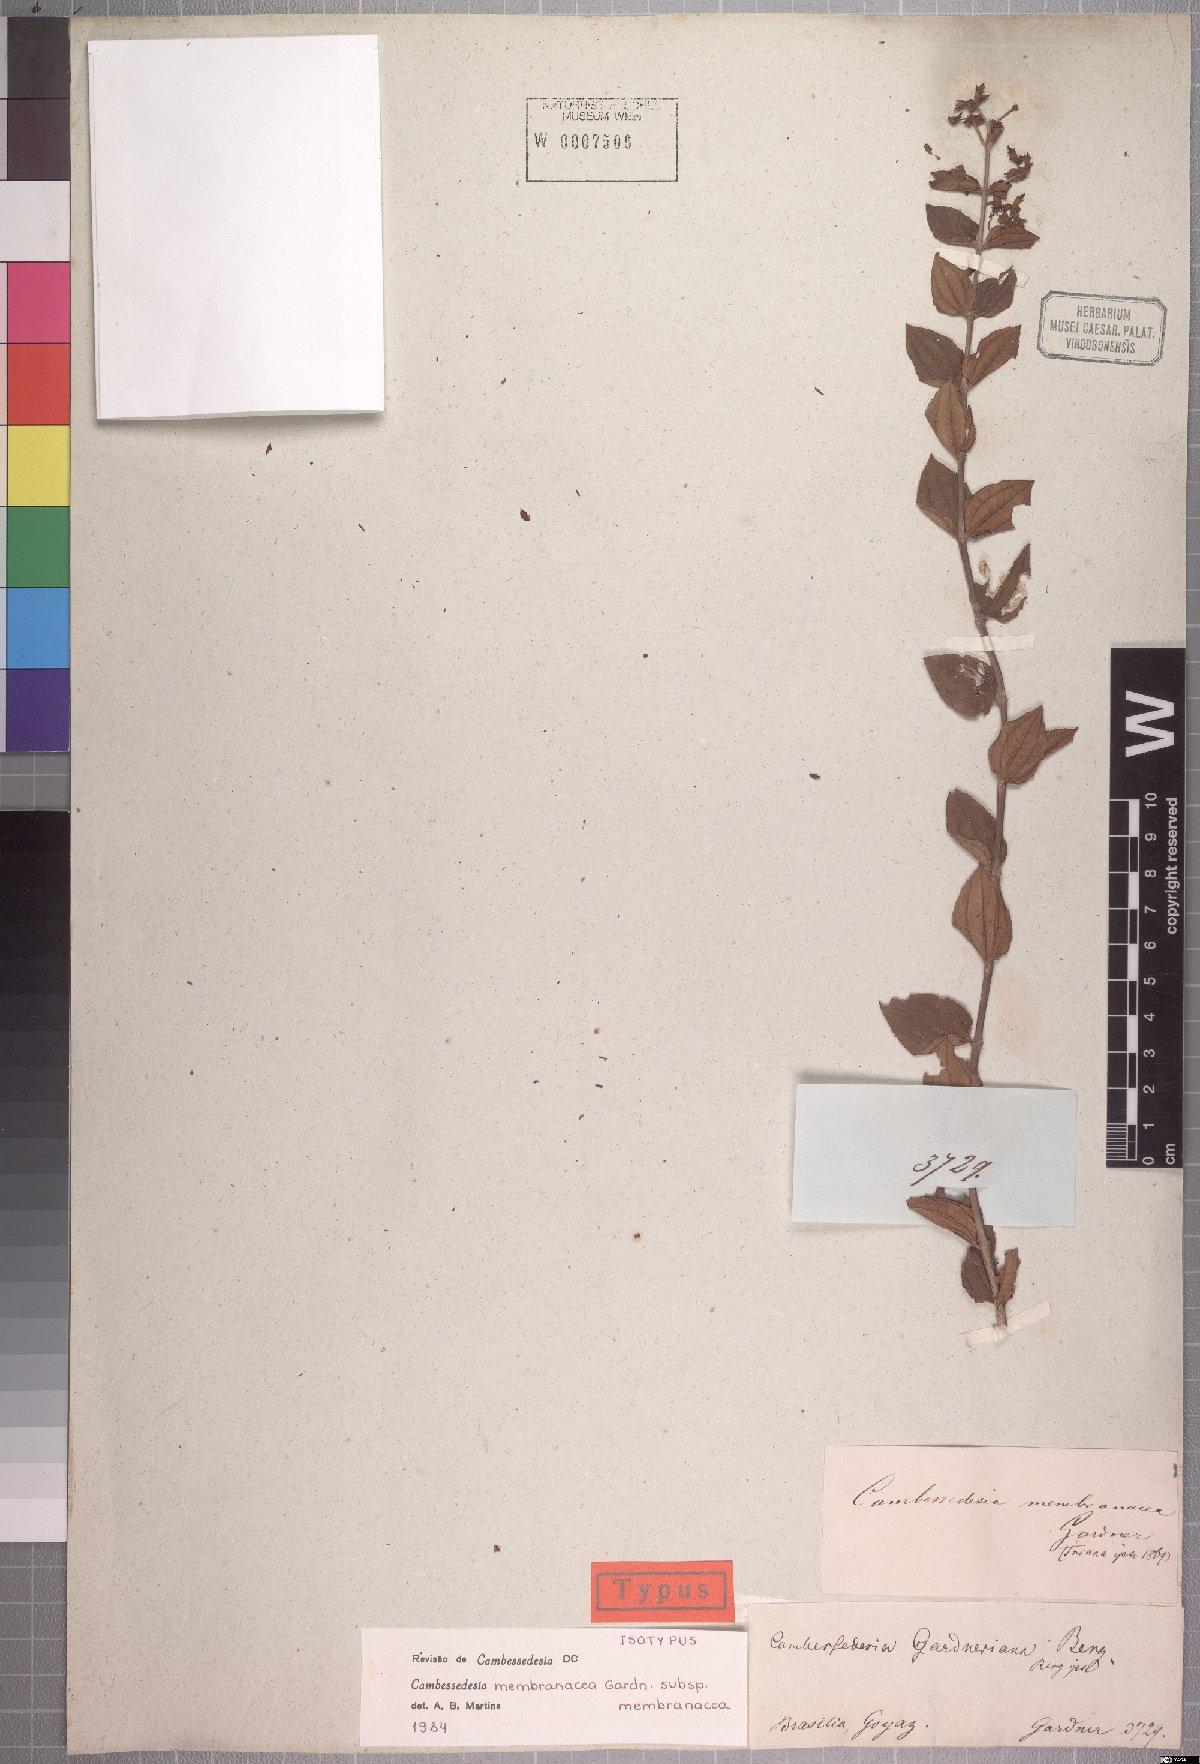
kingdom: Plantae
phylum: Tracheophyta
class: Magnoliopsida
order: Myrtales
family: Melastomataceae
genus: Cambessedesia
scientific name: Cambessedesia membranacea
